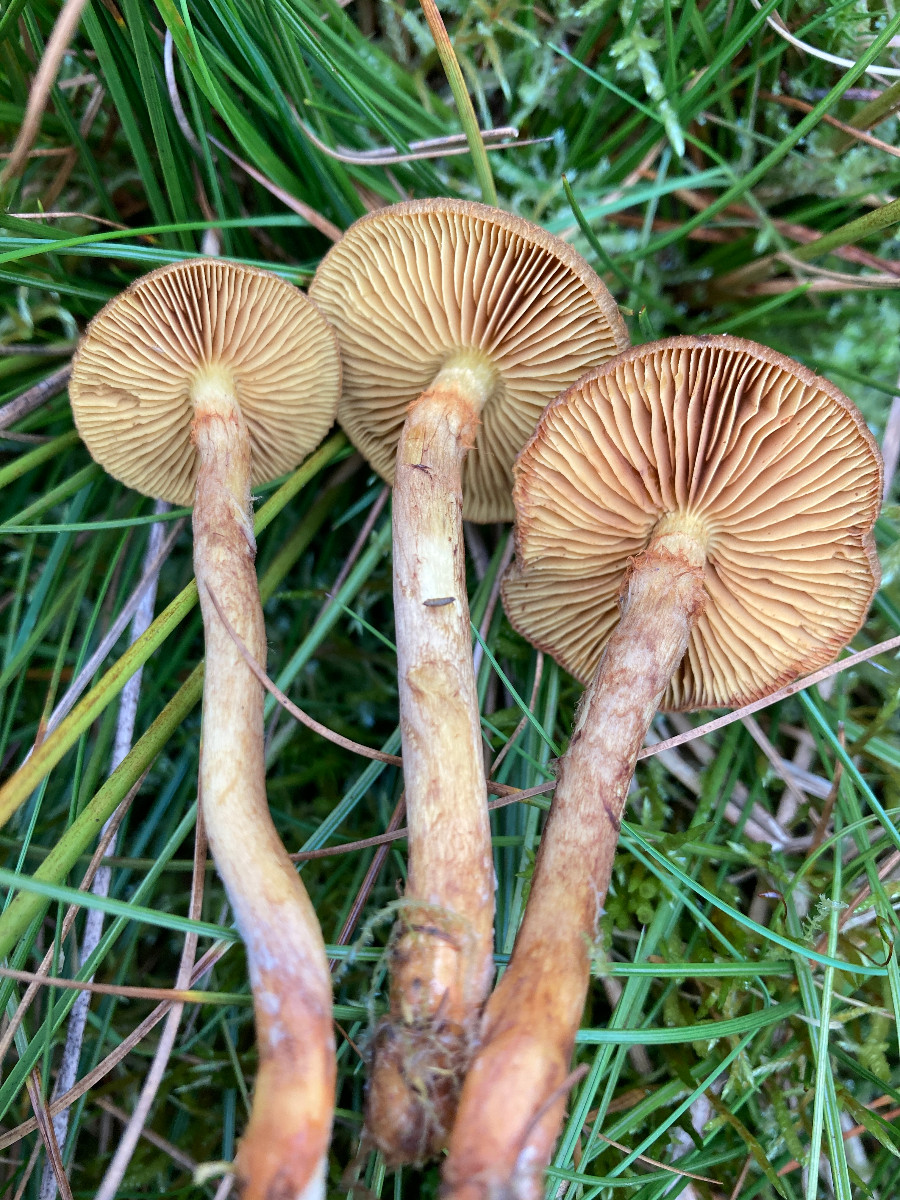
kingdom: Fungi
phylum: Basidiomycota
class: Agaricomycetes
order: Agaricales
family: Cortinariaceae
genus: Cortinarius
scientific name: Cortinarius
